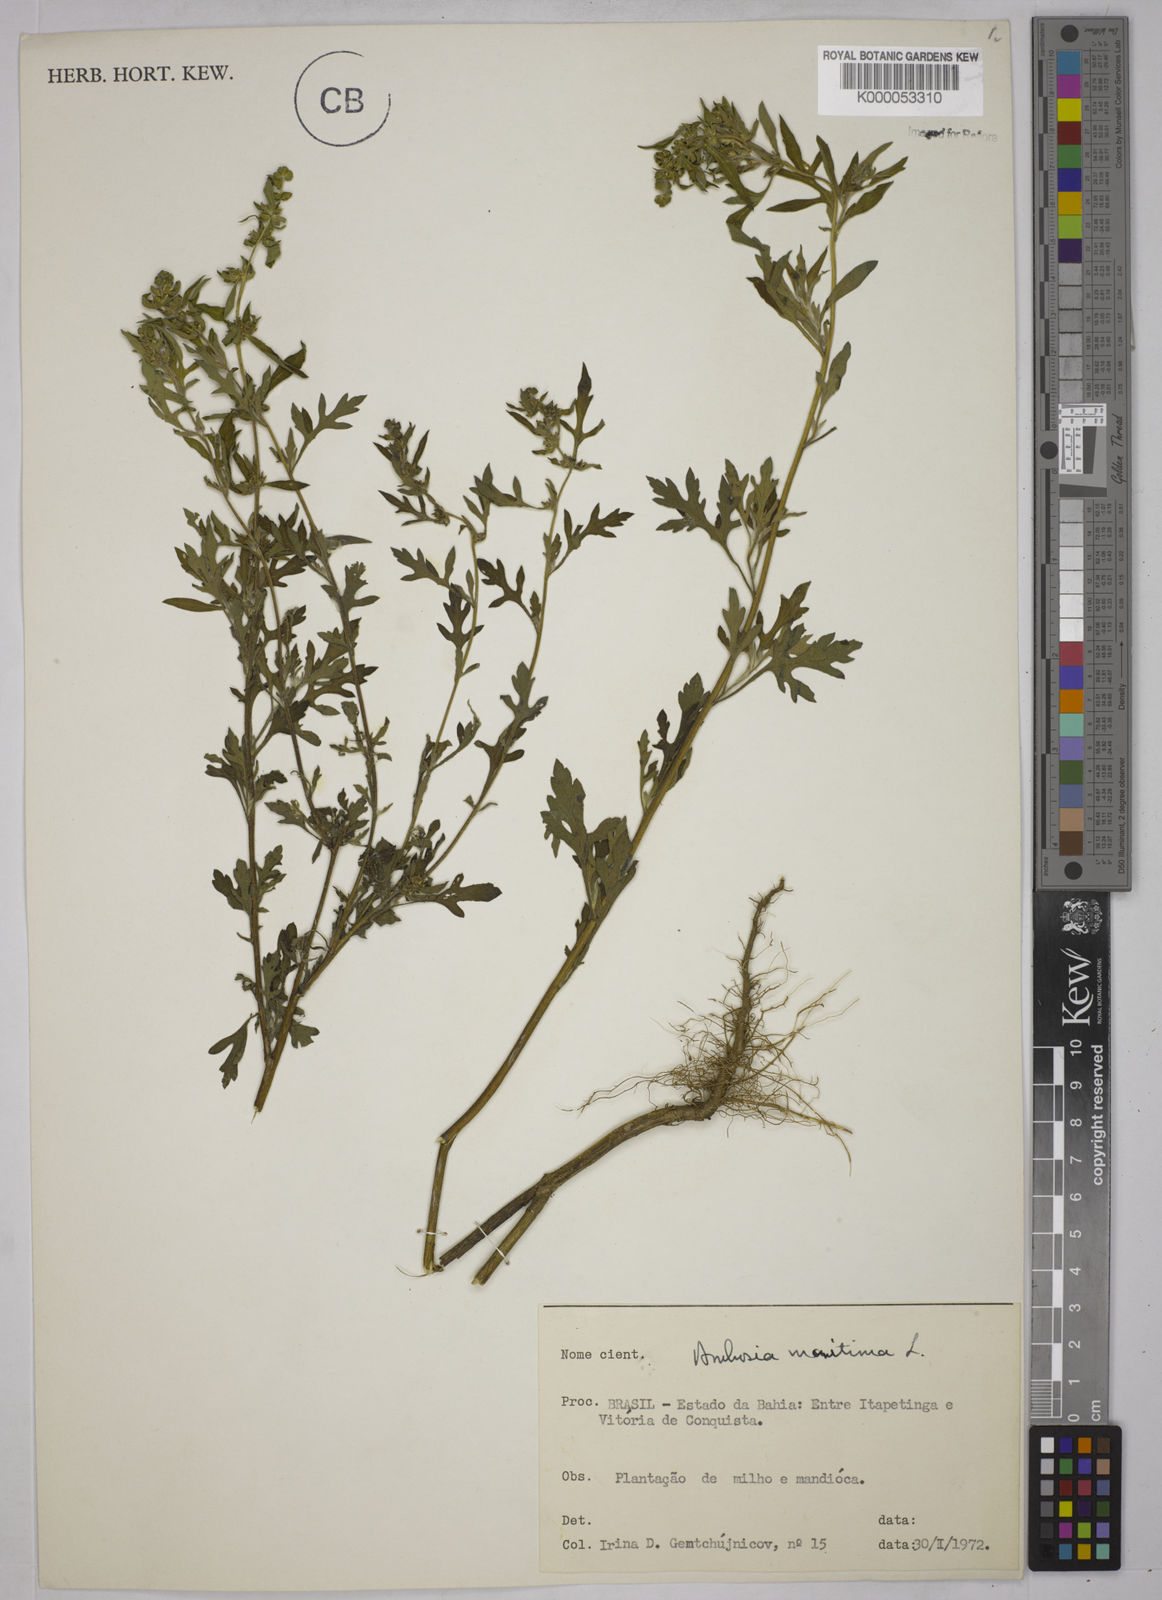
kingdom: Plantae
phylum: Tracheophyta
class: Magnoliopsida
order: Asterales
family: Asteraceae
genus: Ambrosia
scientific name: Ambrosia maritima
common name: Sea ambrosia
